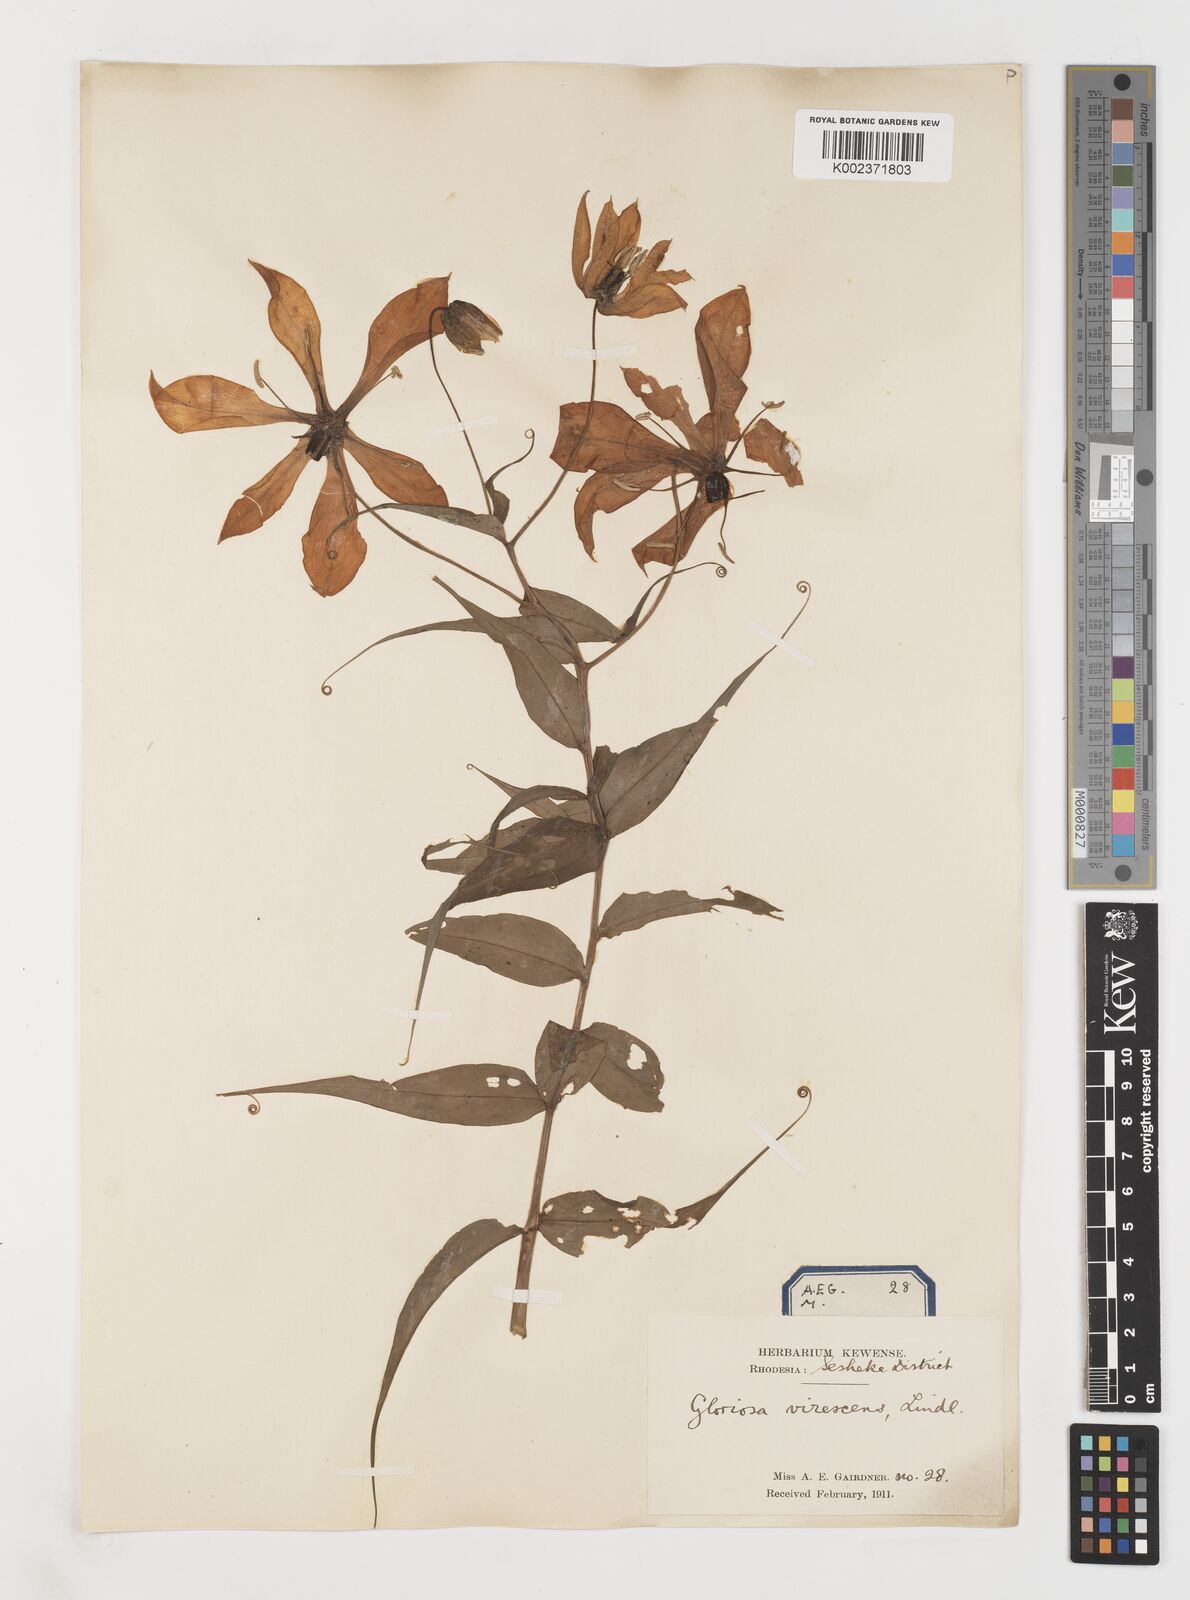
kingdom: Plantae
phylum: Tracheophyta
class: Liliopsida
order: Liliales
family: Colchicaceae
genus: Gloriosa
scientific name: Gloriosa simplex
